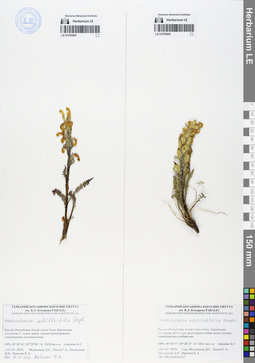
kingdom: Plantae
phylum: Tracheophyta
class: Magnoliopsida
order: Lamiales
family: Orobanchaceae
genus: Pedicularis
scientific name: Pedicularis achilleifolia
